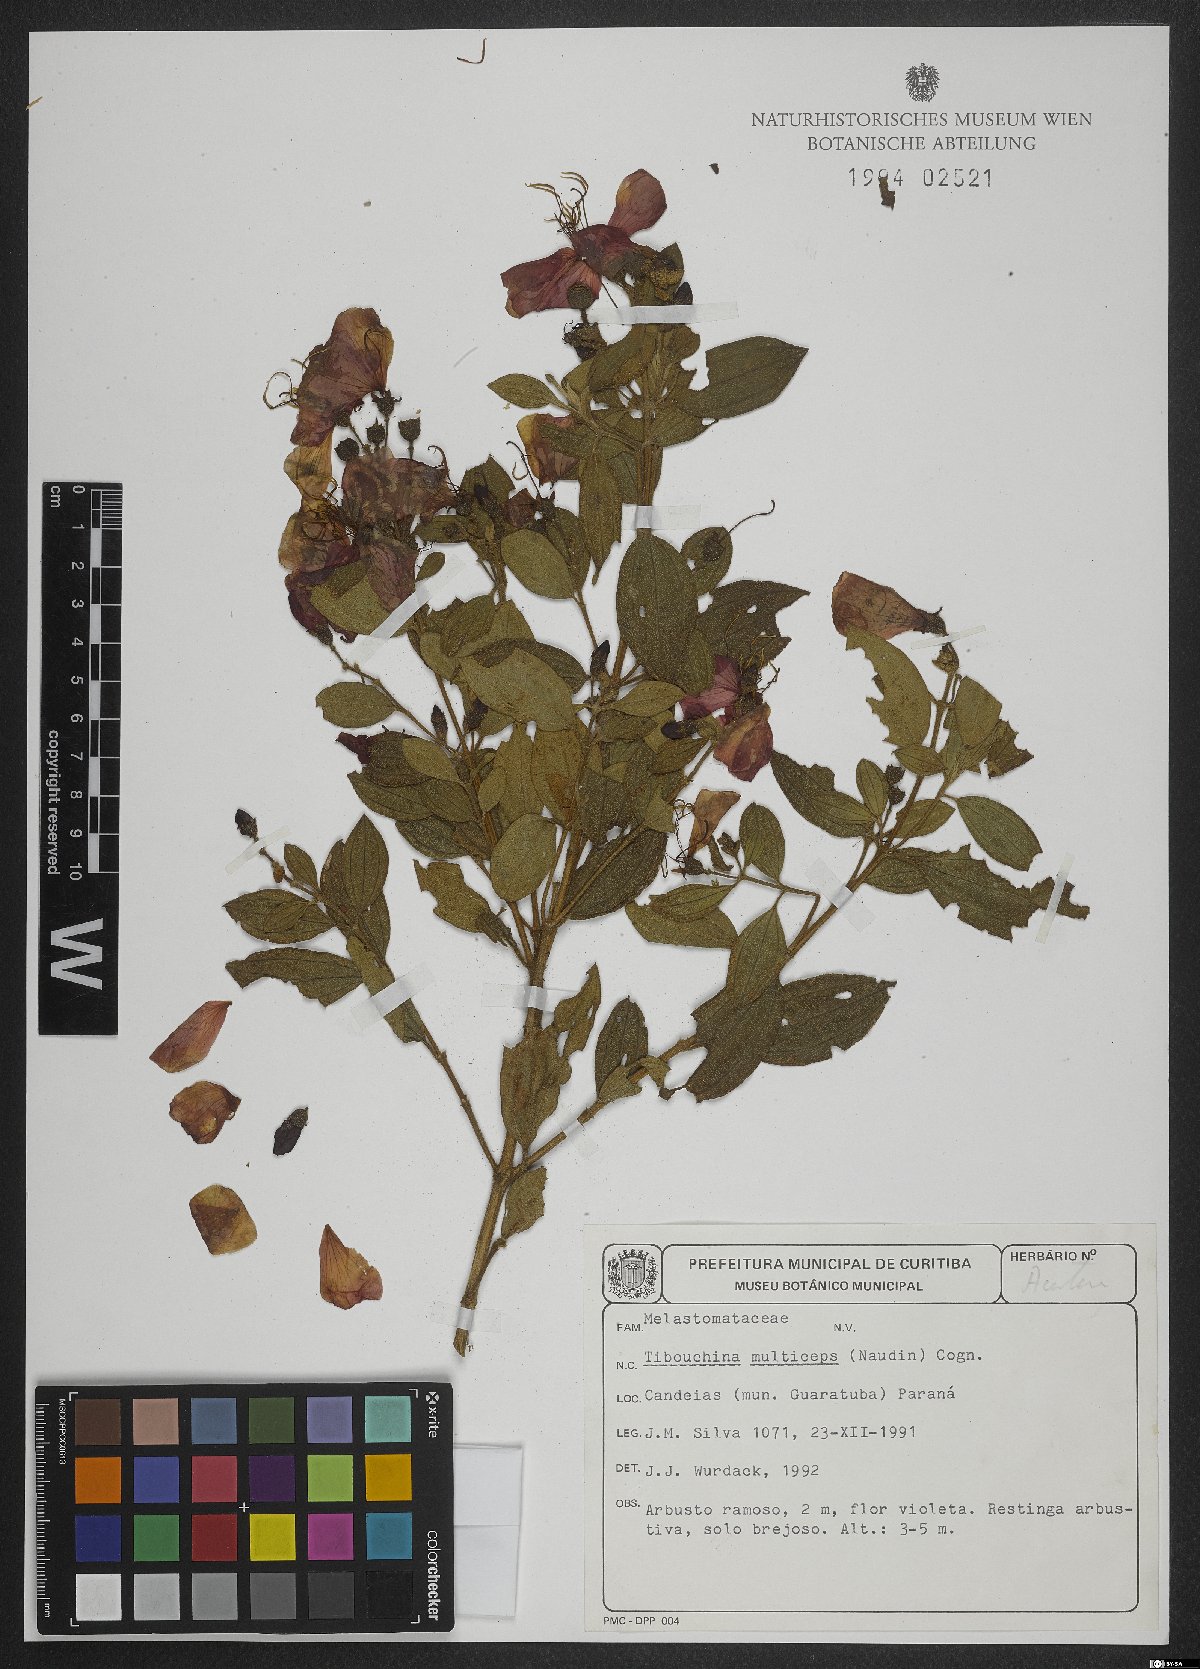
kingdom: Plantae
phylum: Tracheophyta
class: Magnoliopsida
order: Myrtales
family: Melastomataceae
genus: Pleroma
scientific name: Pleroma trichopodum
